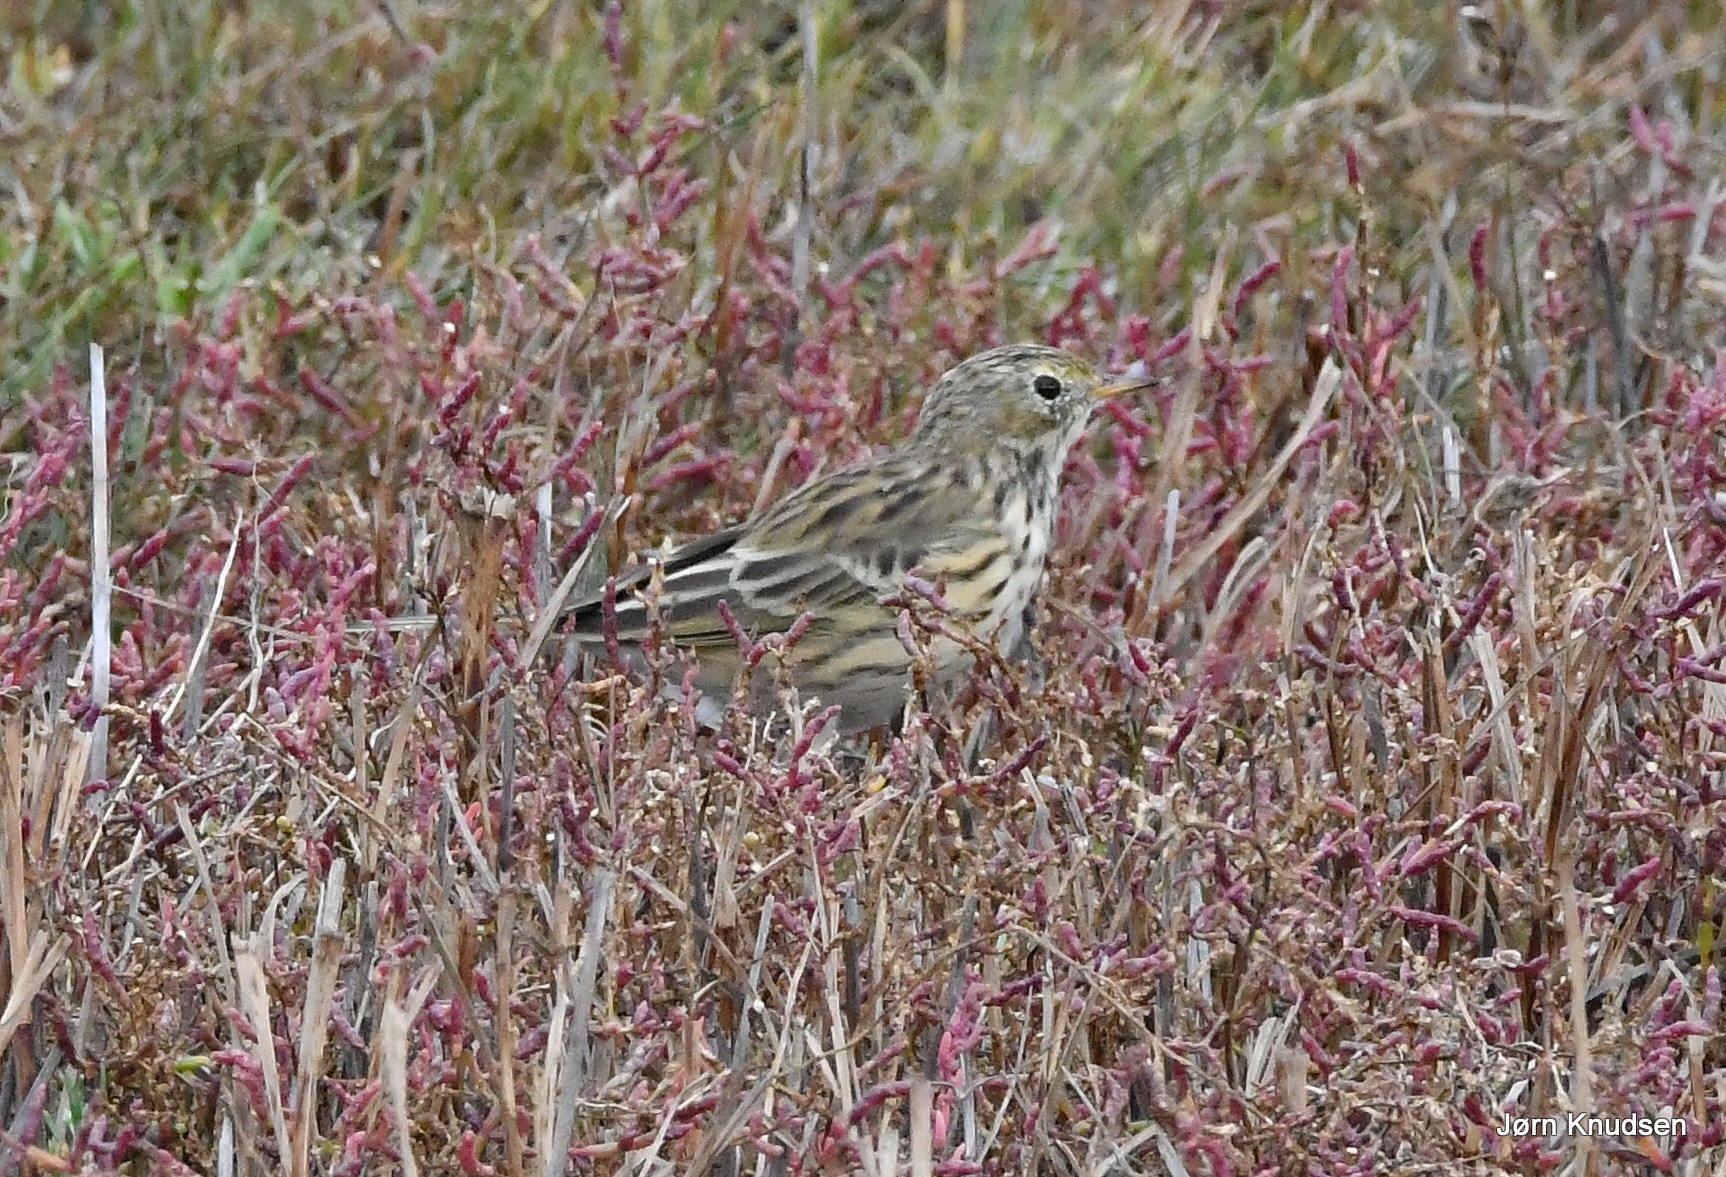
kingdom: Animalia
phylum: Chordata
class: Aves
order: Passeriformes
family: Motacillidae
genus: Anthus
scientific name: Anthus pratensis
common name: Engpiber
